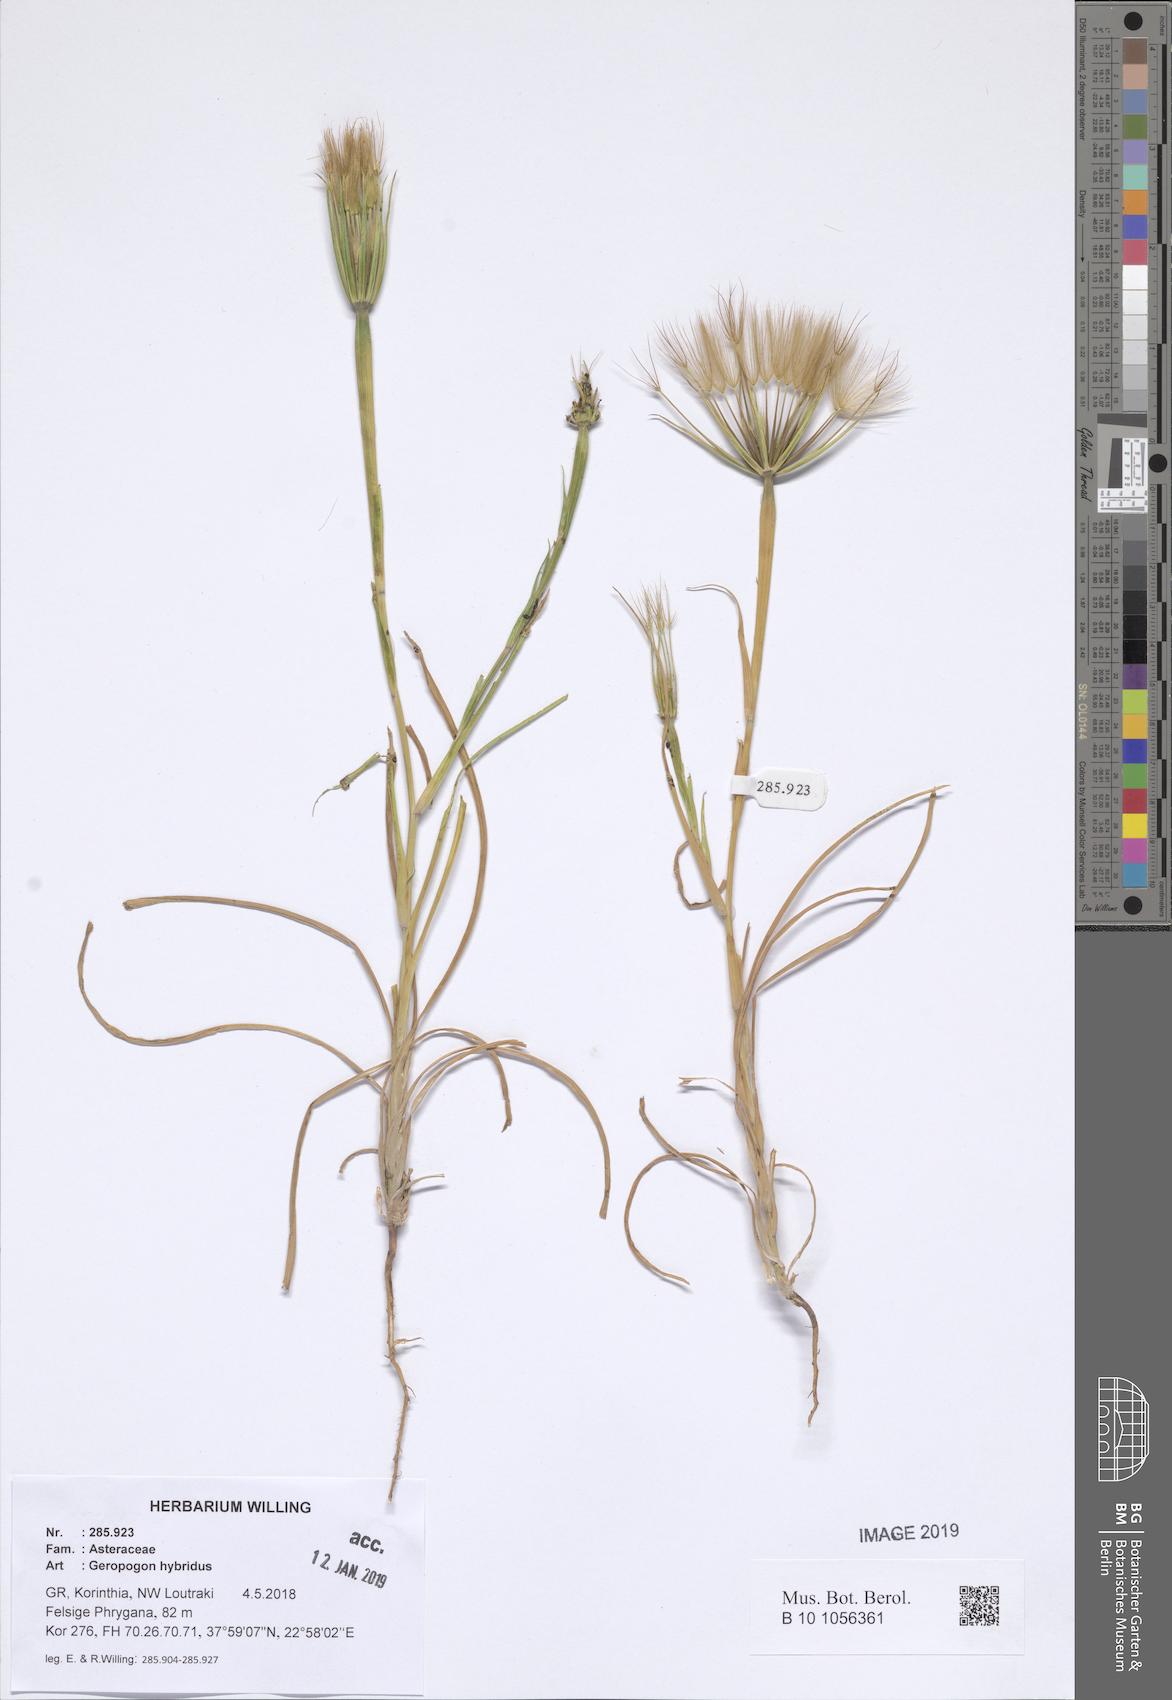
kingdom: Plantae
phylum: Tracheophyta
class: Magnoliopsida
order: Asterales
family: Asteraceae
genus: Geropogon
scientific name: Geropogon hybridus
